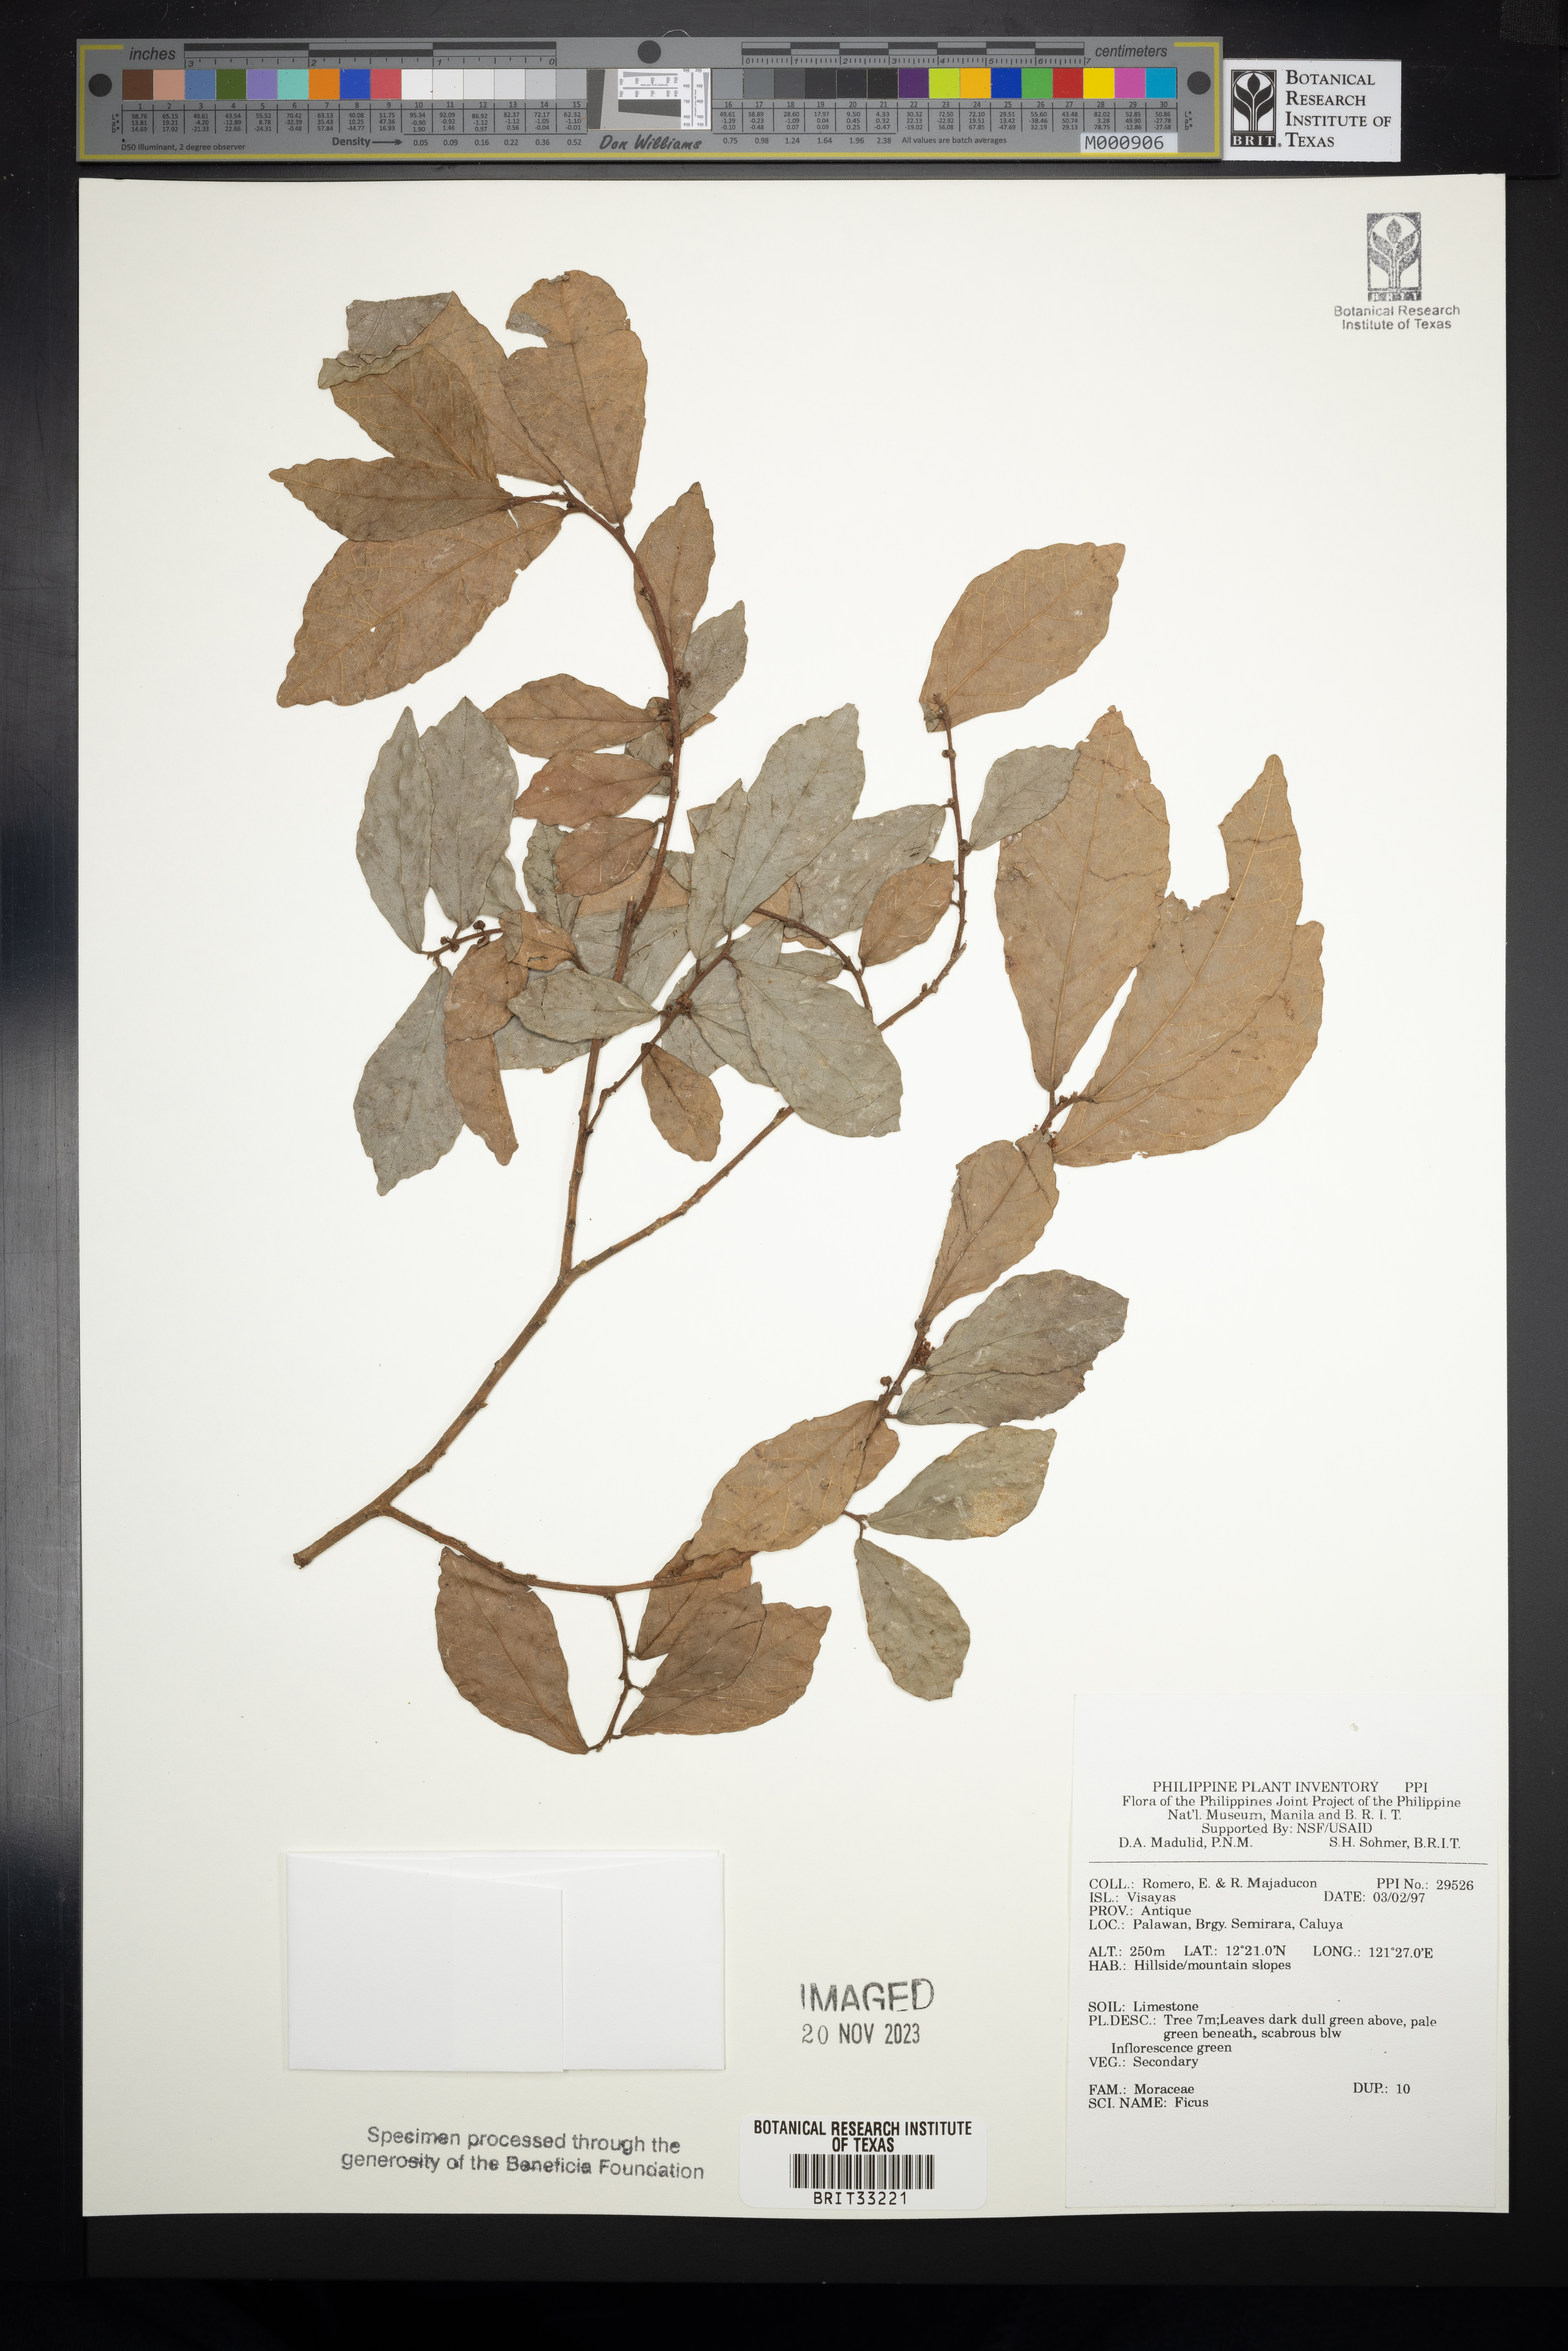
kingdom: Plantae
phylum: Tracheophyta
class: Magnoliopsida
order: Rosales
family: Moraceae
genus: Ficus
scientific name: Ficus
